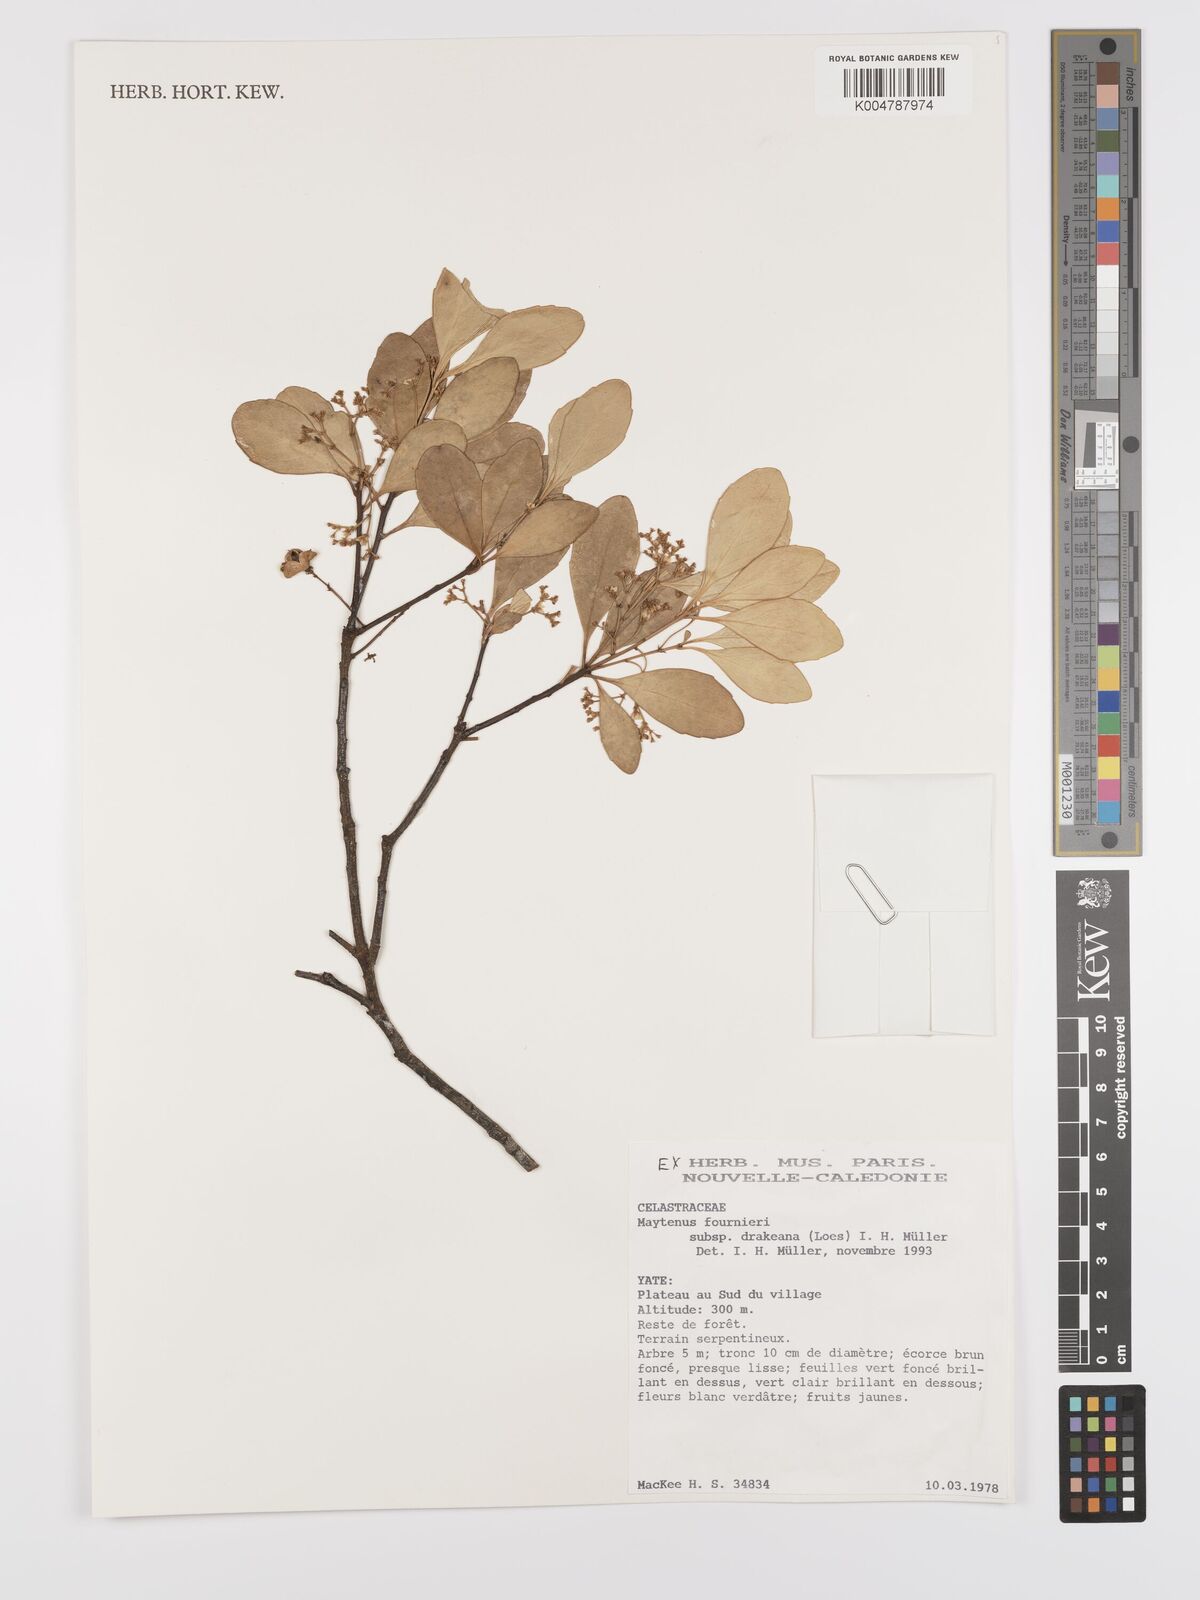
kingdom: Plantae
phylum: Tracheophyta
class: Magnoliopsida
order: Celastrales
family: Celastraceae
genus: Denhamia
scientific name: Denhamia fournieri
